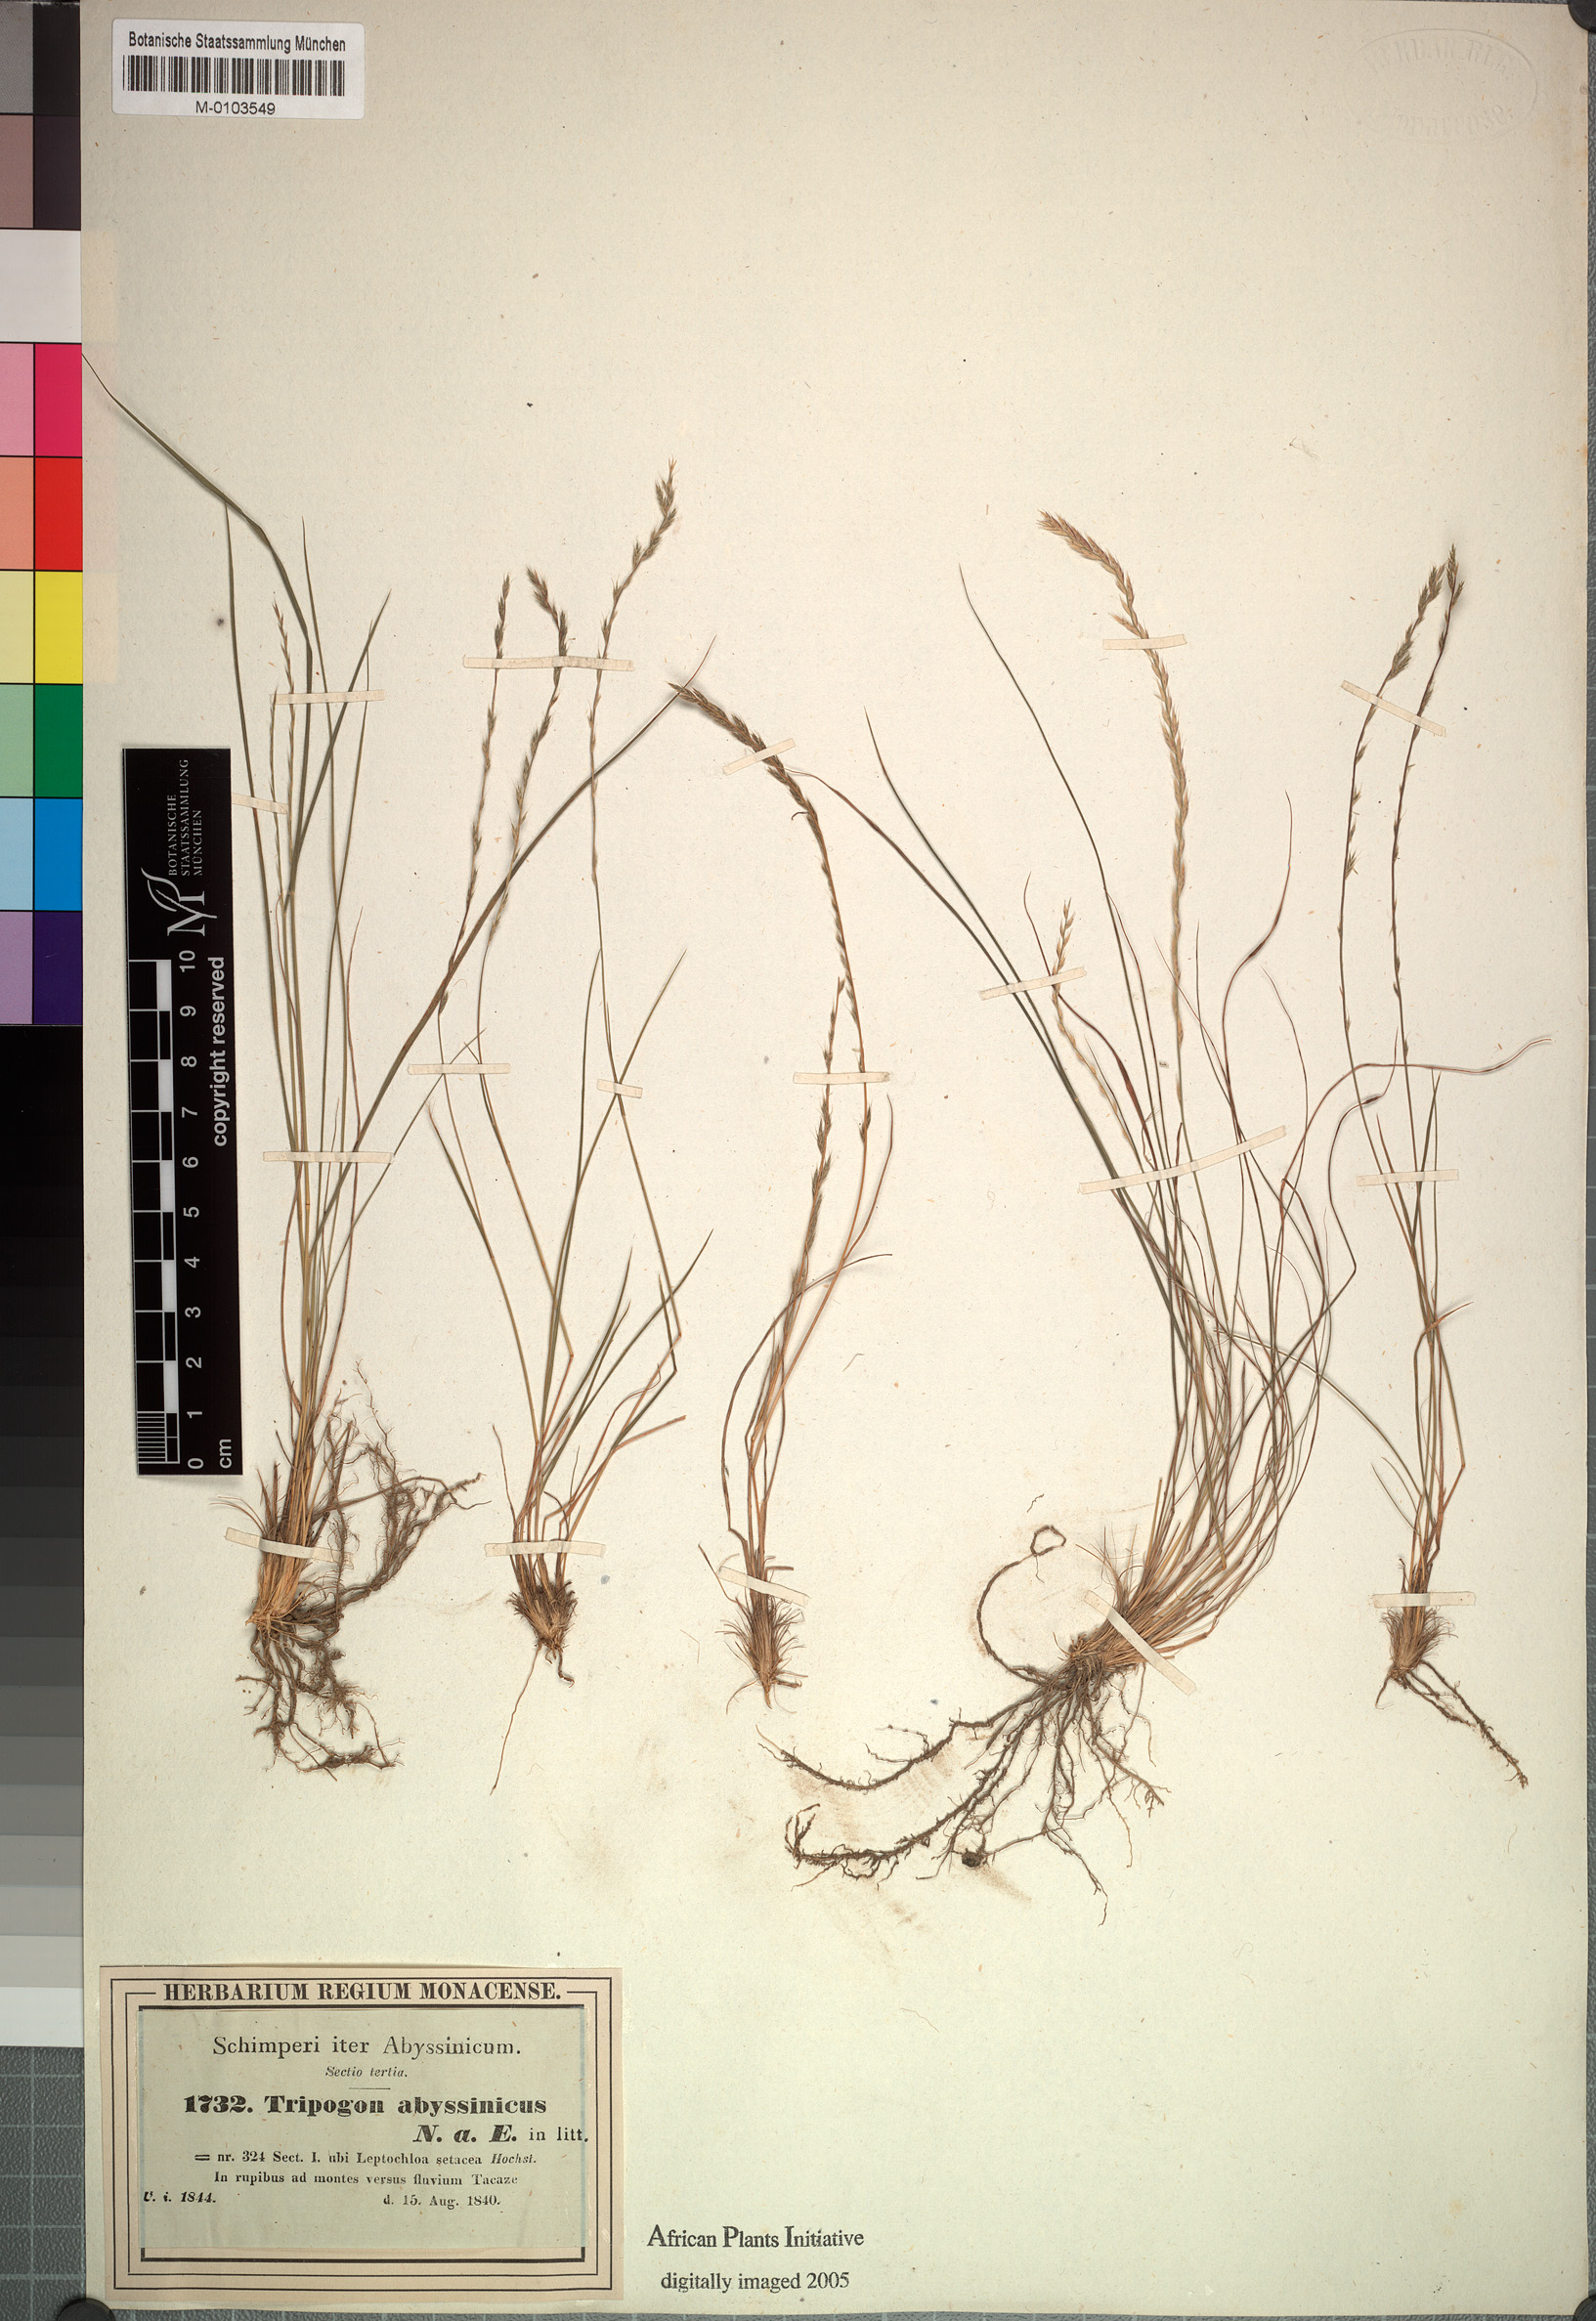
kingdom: Plantae
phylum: Tracheophyta
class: Liliopsida
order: Poales
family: Poaceae
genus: Tripogon
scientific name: Tripogon leptophyllus
